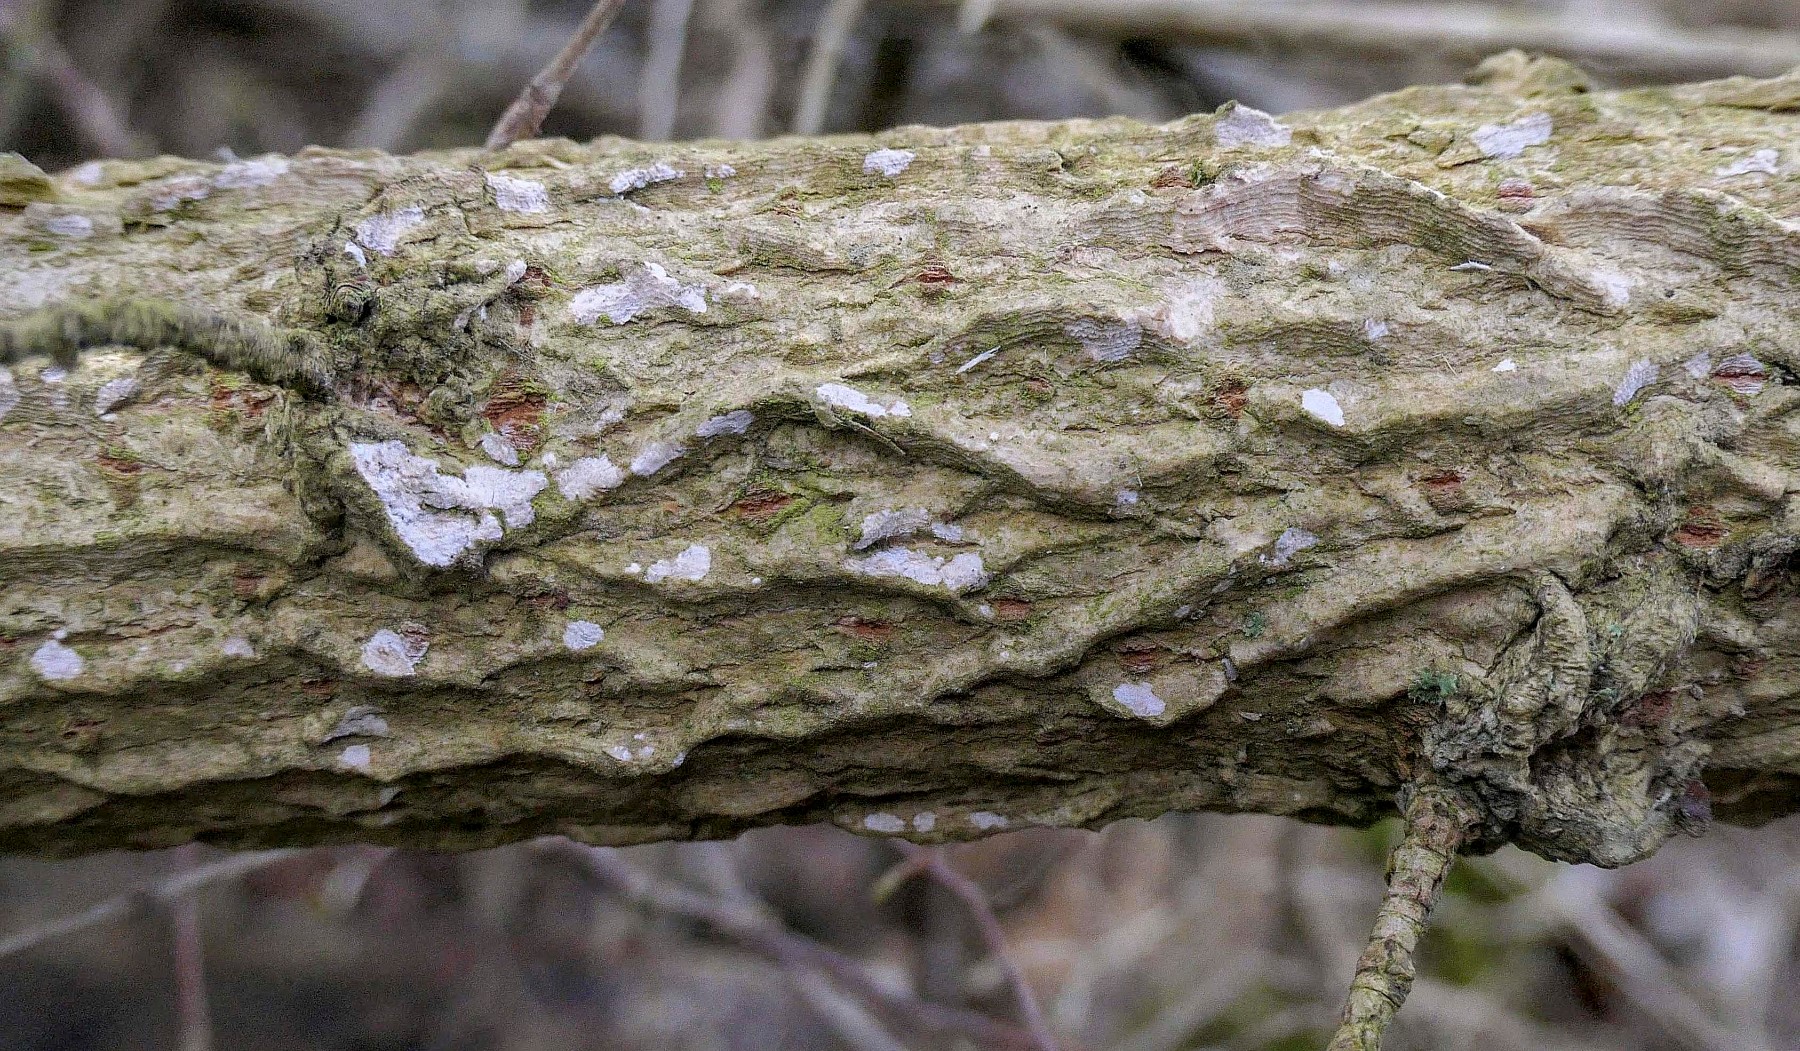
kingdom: Fungi
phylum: Basidiomycota
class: Agaricomycetes
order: Agaricales
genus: Dendrothele
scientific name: Dendrothele acerina
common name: navr-kalkplet
